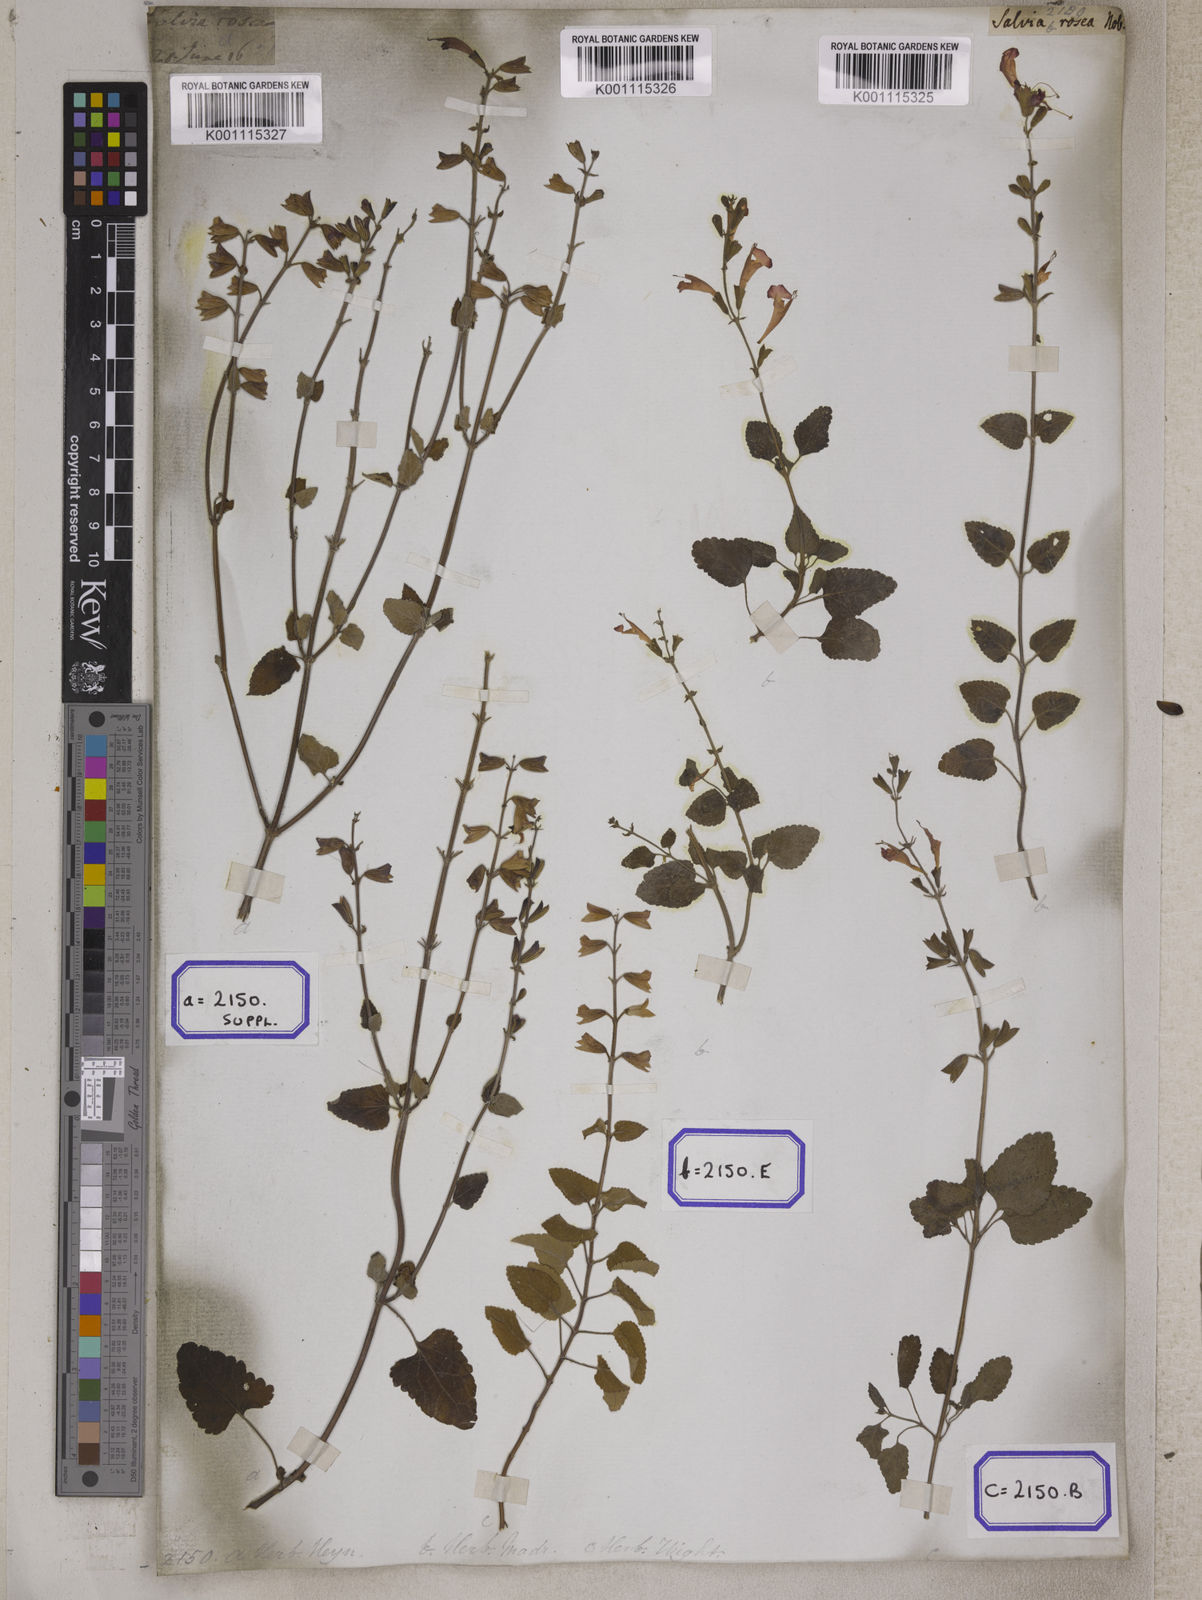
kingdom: Plantae
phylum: Tracheophyta
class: Magnoliopsida
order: Lamiales
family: Lamiaceae
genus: Salvia
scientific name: Salvia coccinea
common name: Blood sage
